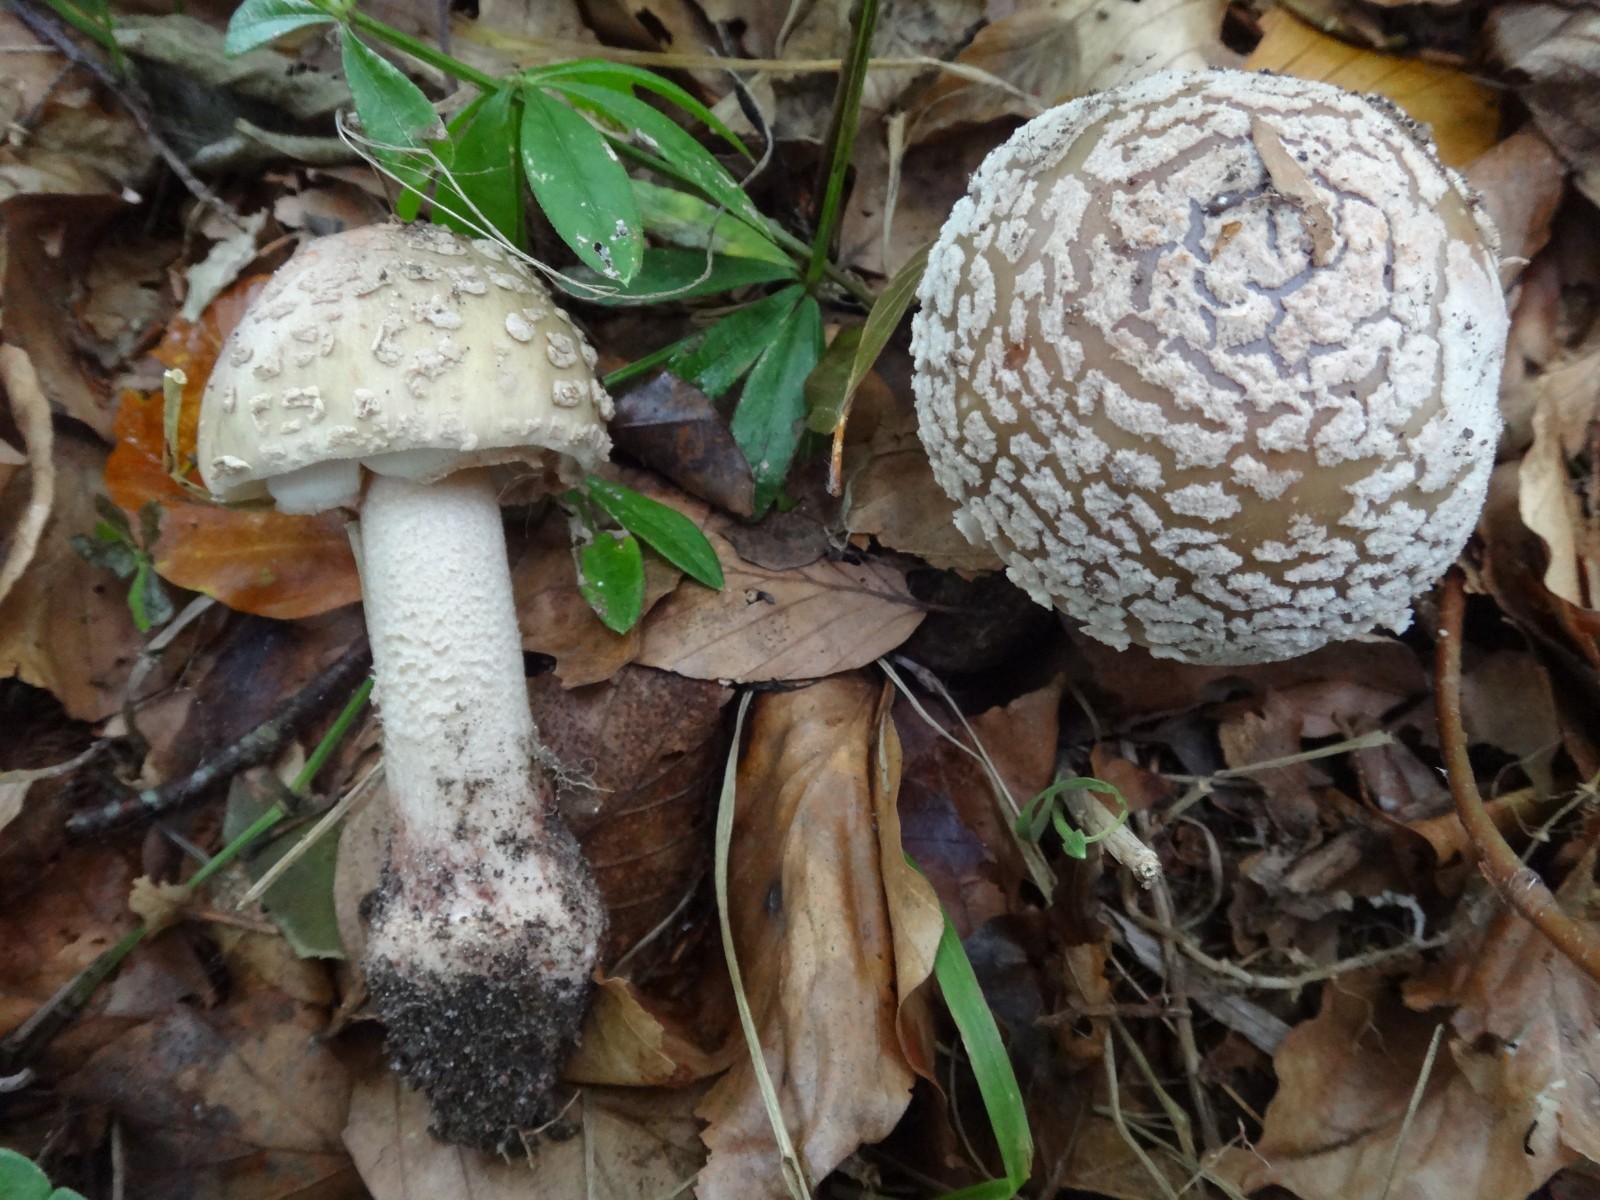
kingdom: Fungi
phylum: Basidiomycota
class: Agaricomycetes
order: Agaricales
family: Amanitaceae
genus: Amanita
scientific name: Amanita rubescens
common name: rødmende fluesvamp
